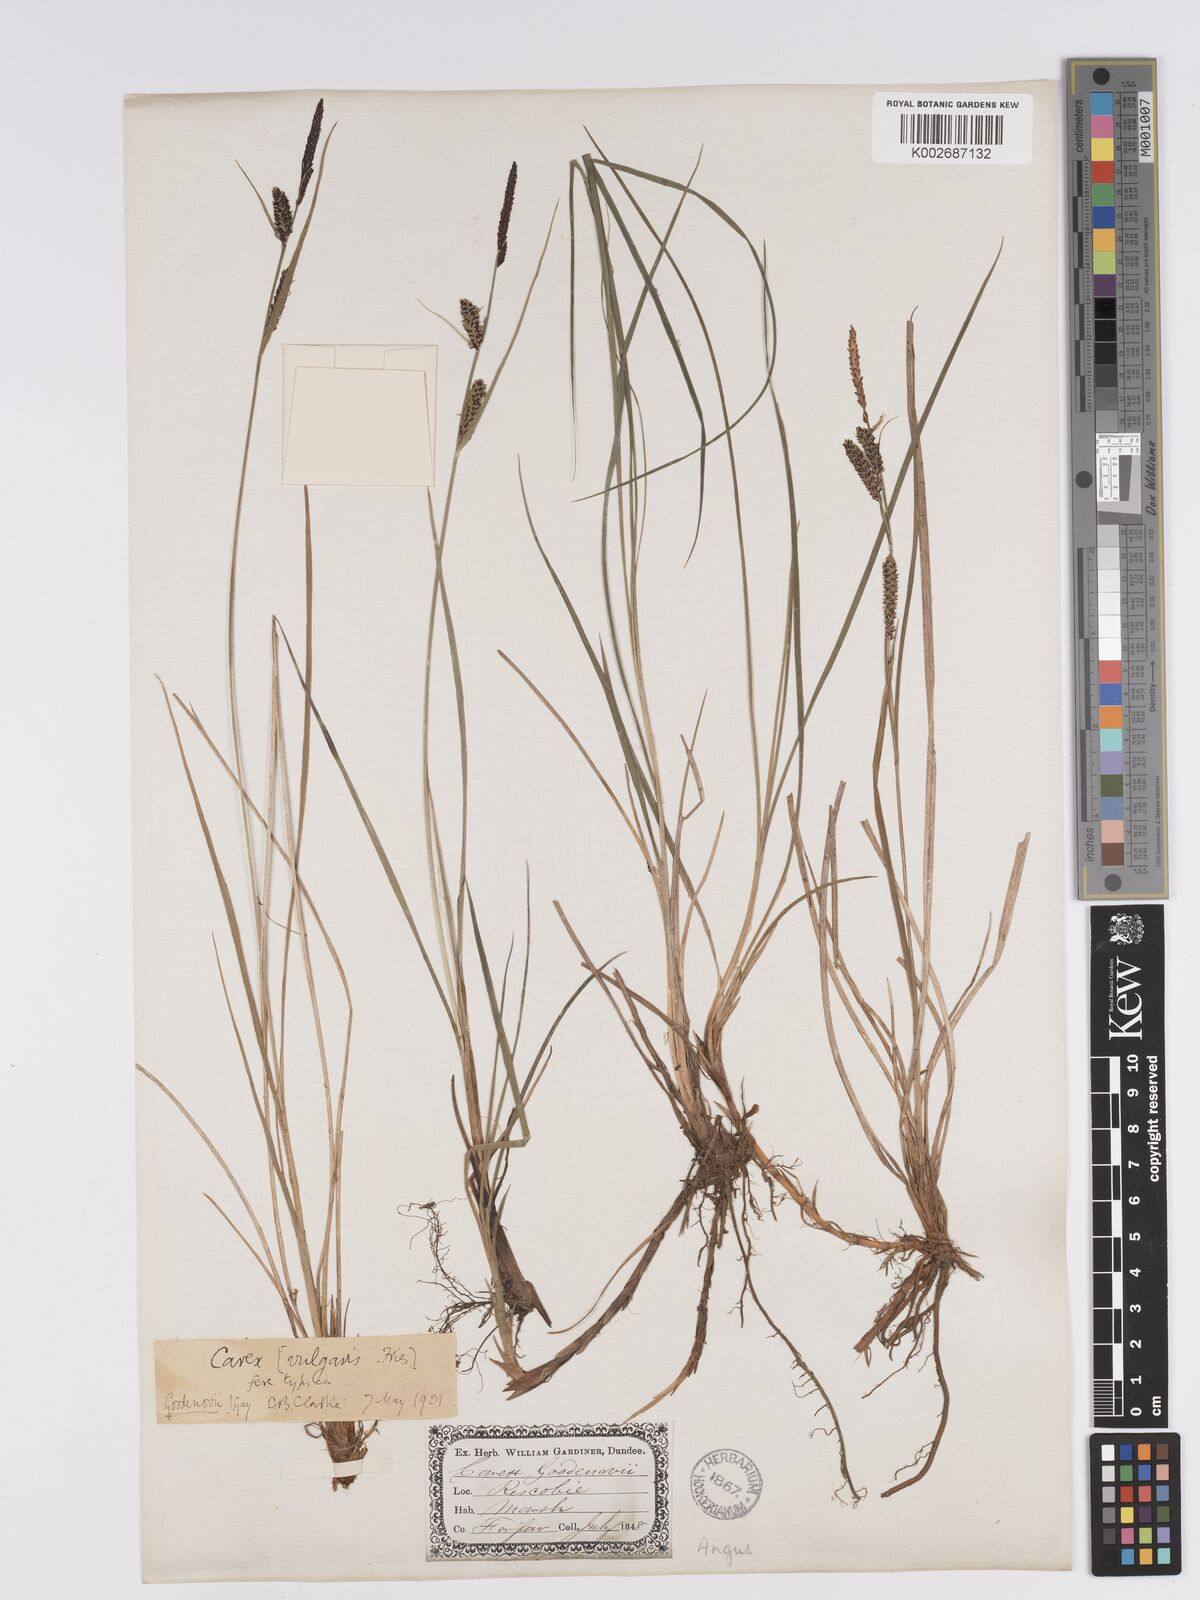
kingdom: Plantae
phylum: Tracheophyta
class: Liliopsida
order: Poales
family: Cyperaceae
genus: Carex
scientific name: Carex nigra
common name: Common sedge
